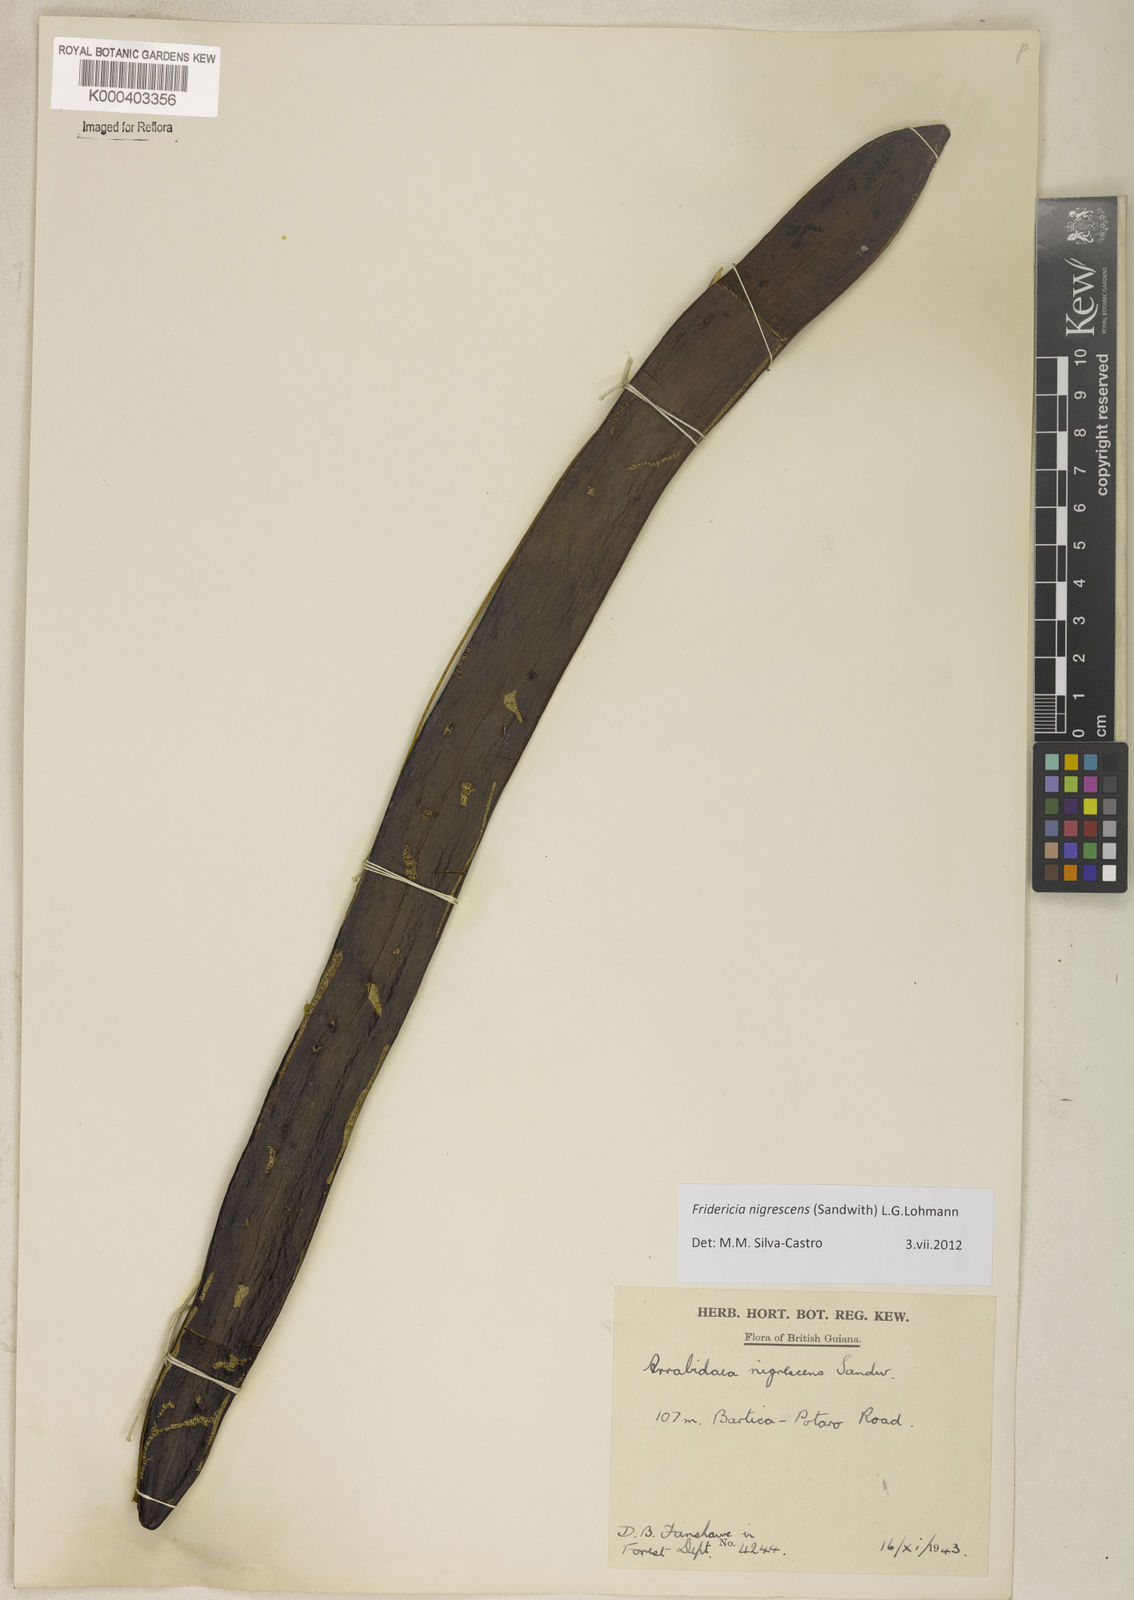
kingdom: Plantae
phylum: Tracheophyta
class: Magnoliopsida
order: Lamiales
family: Bignoniaceae
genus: Fridericia
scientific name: Fridericia nigrescens
